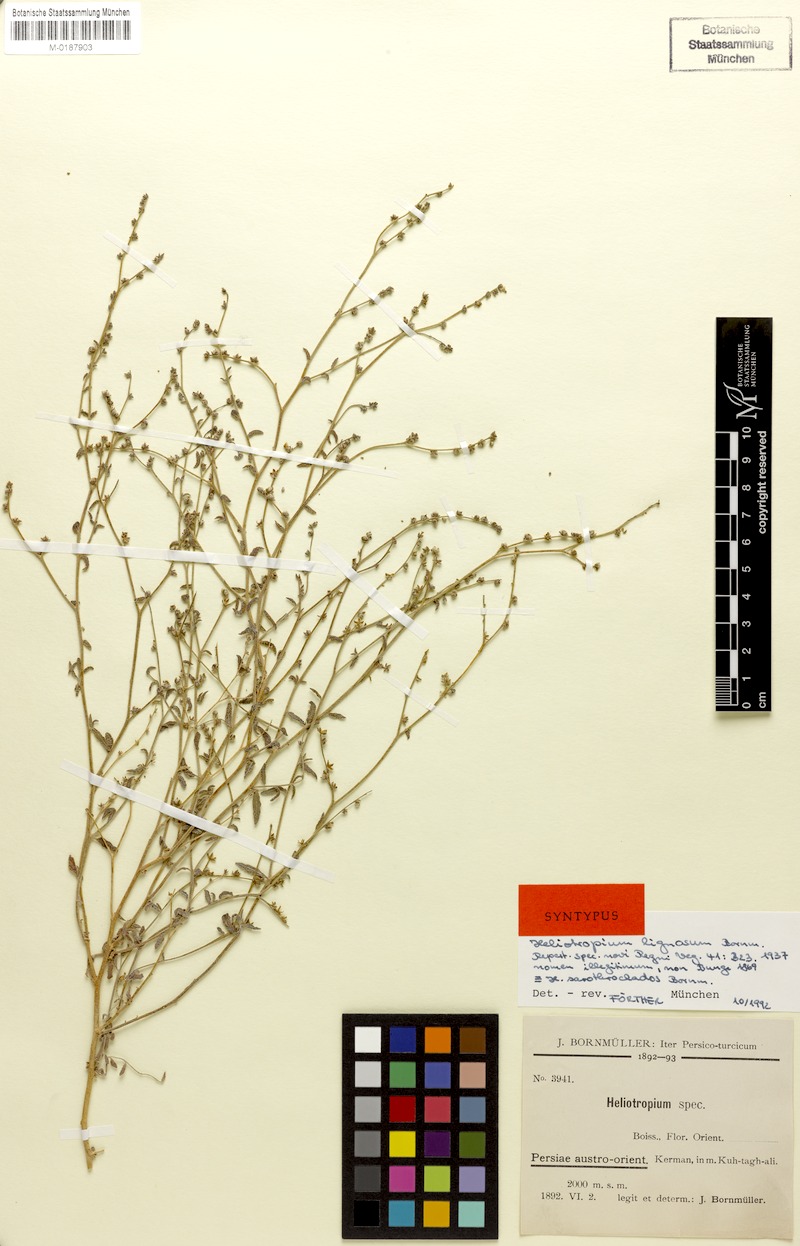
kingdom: Plantae
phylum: Tracheophyta
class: Magnoliopsida
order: Boraginales
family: Heliotropiaceae
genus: Heliotropium
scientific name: Heliotropium bacciferum
